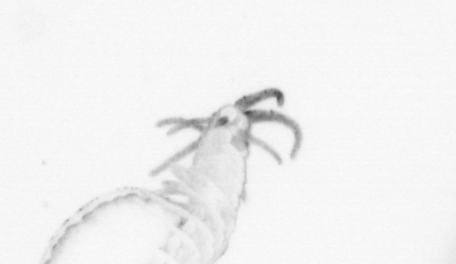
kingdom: Animalia
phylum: Annelida
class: Polychaeta
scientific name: Polychaeta
